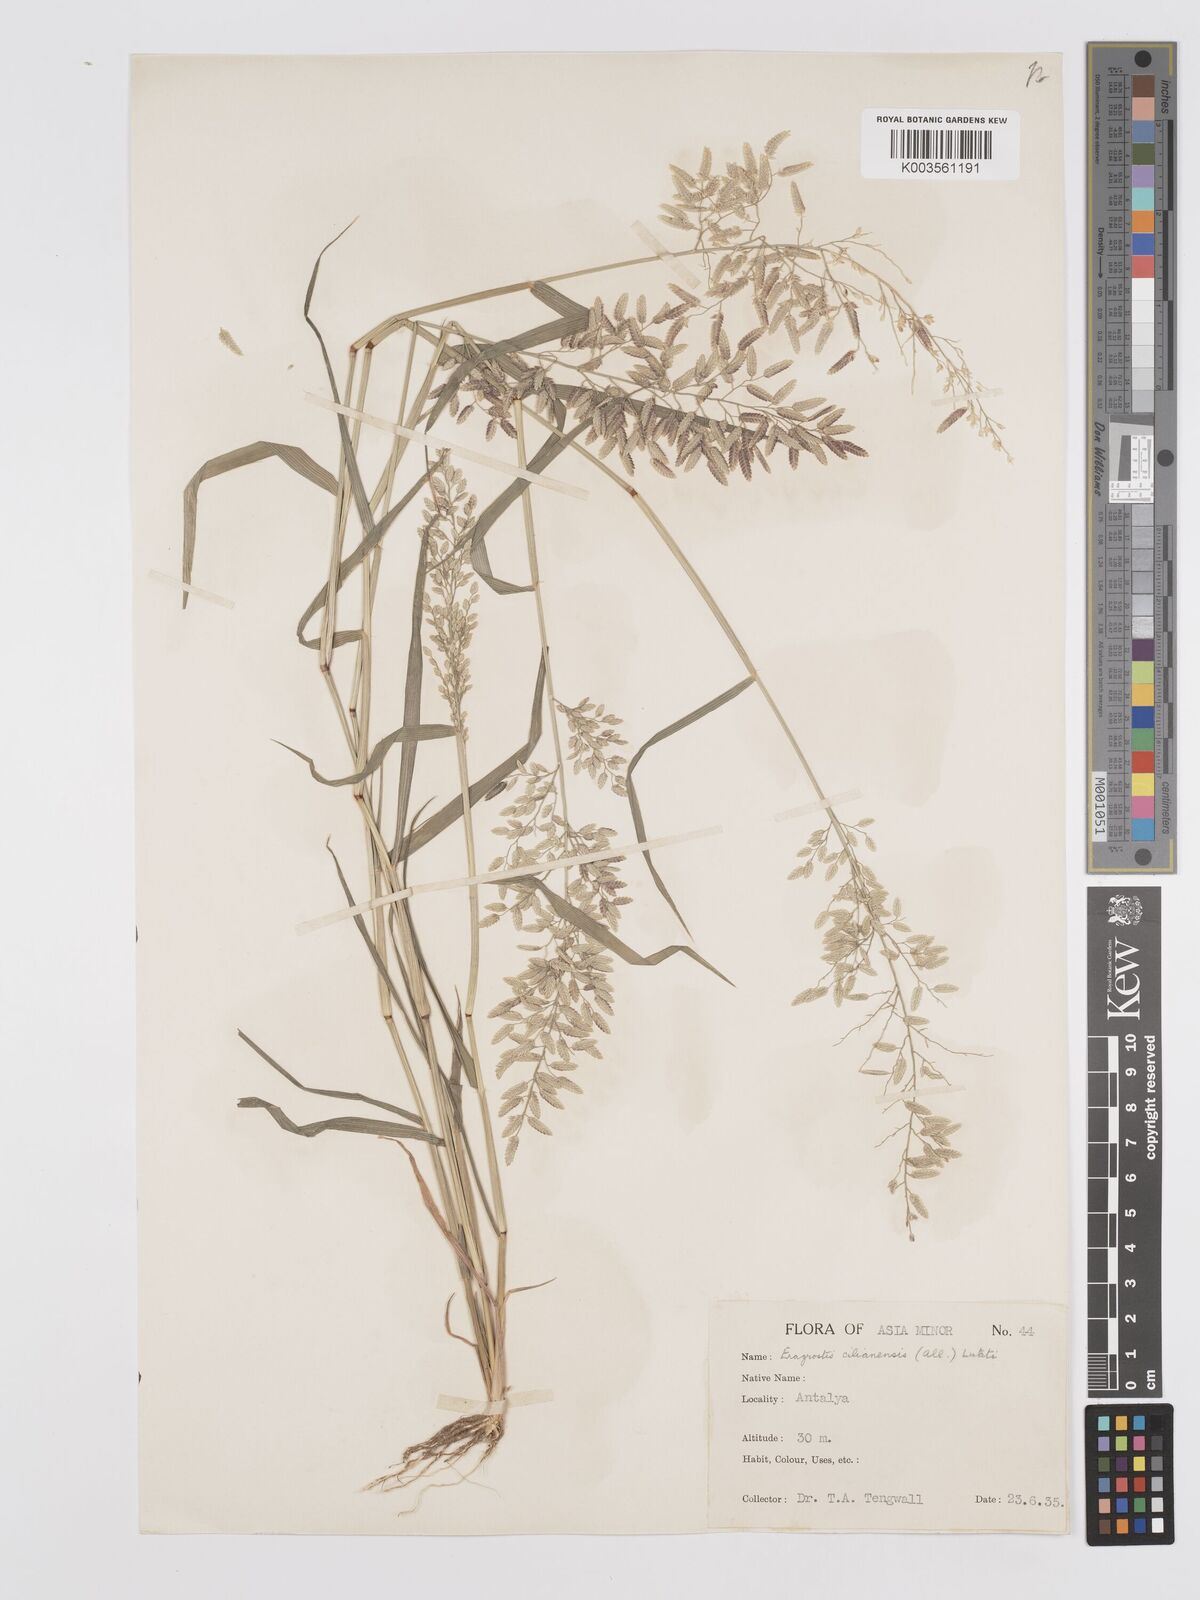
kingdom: Plantae
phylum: Tracheophyta
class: Liliopsida
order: Poales
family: Poaceae
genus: Eragrostis
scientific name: Eragrostis cilianensis
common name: Stinkgrass
